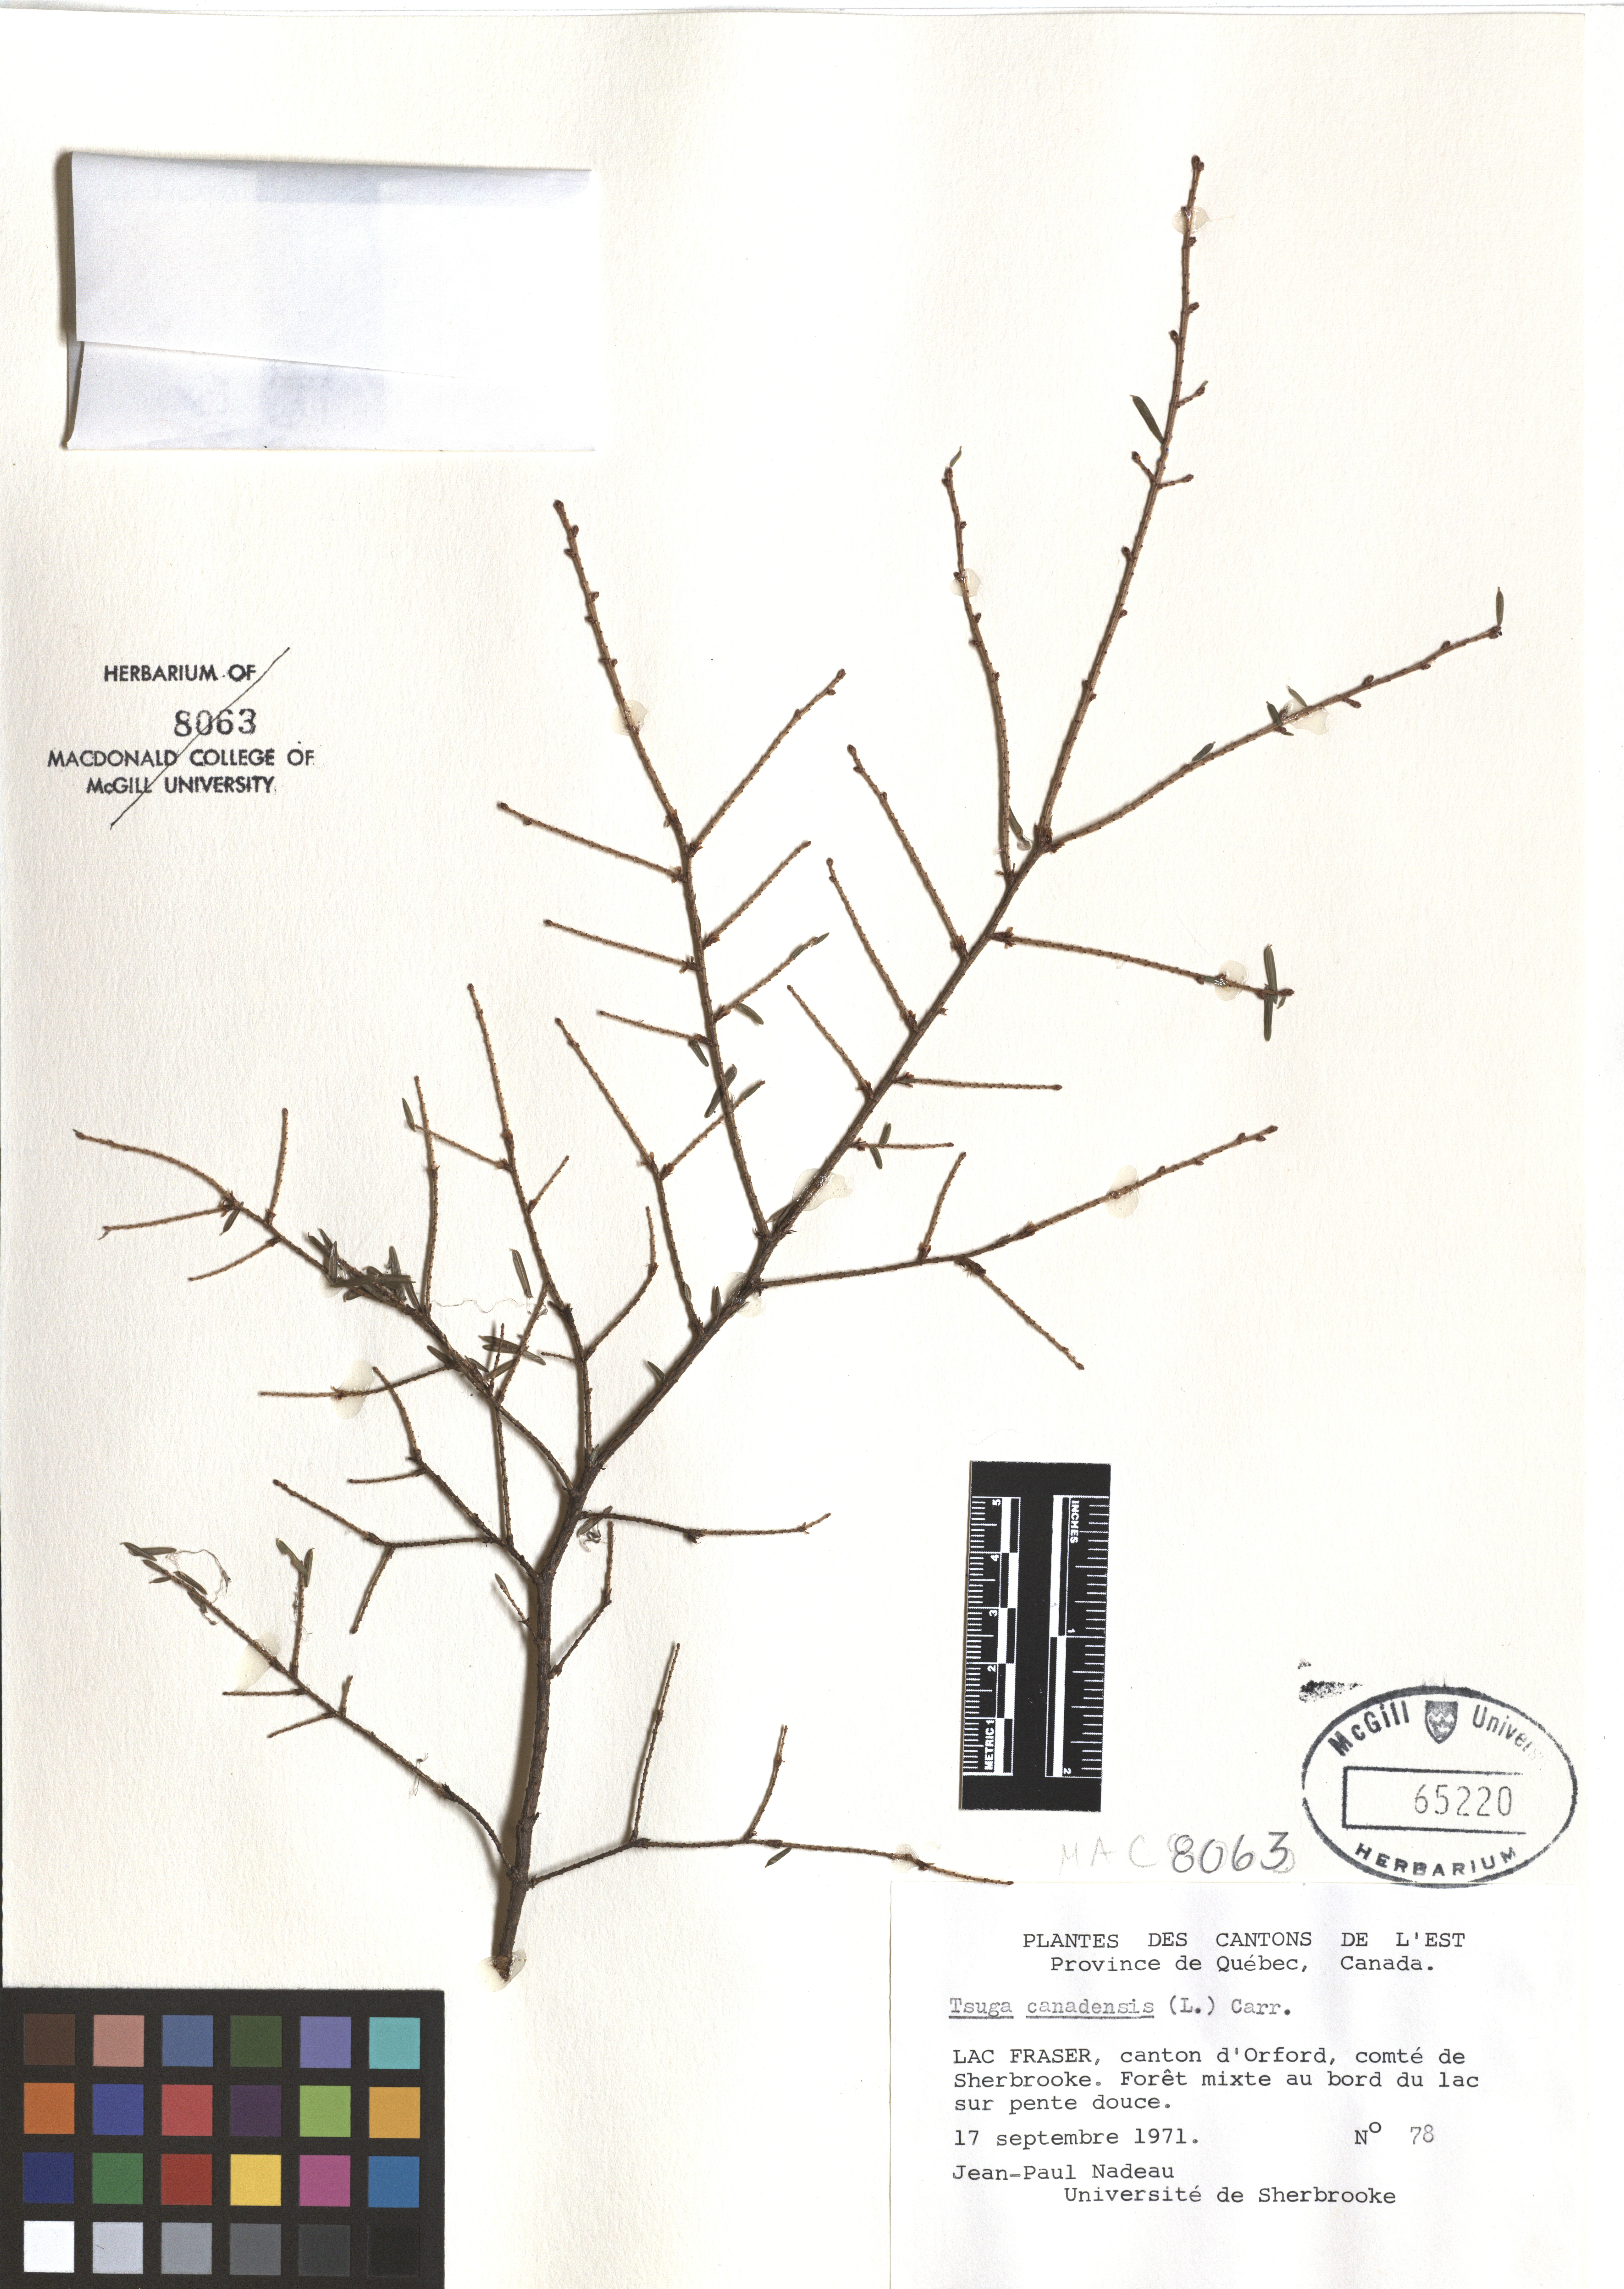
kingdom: Plantae
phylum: Tracheophyta
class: Pinopsida
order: Pinales
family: Pinaceae
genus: Tsuga
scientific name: Tsuga canadensis
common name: Eastern hemlock
